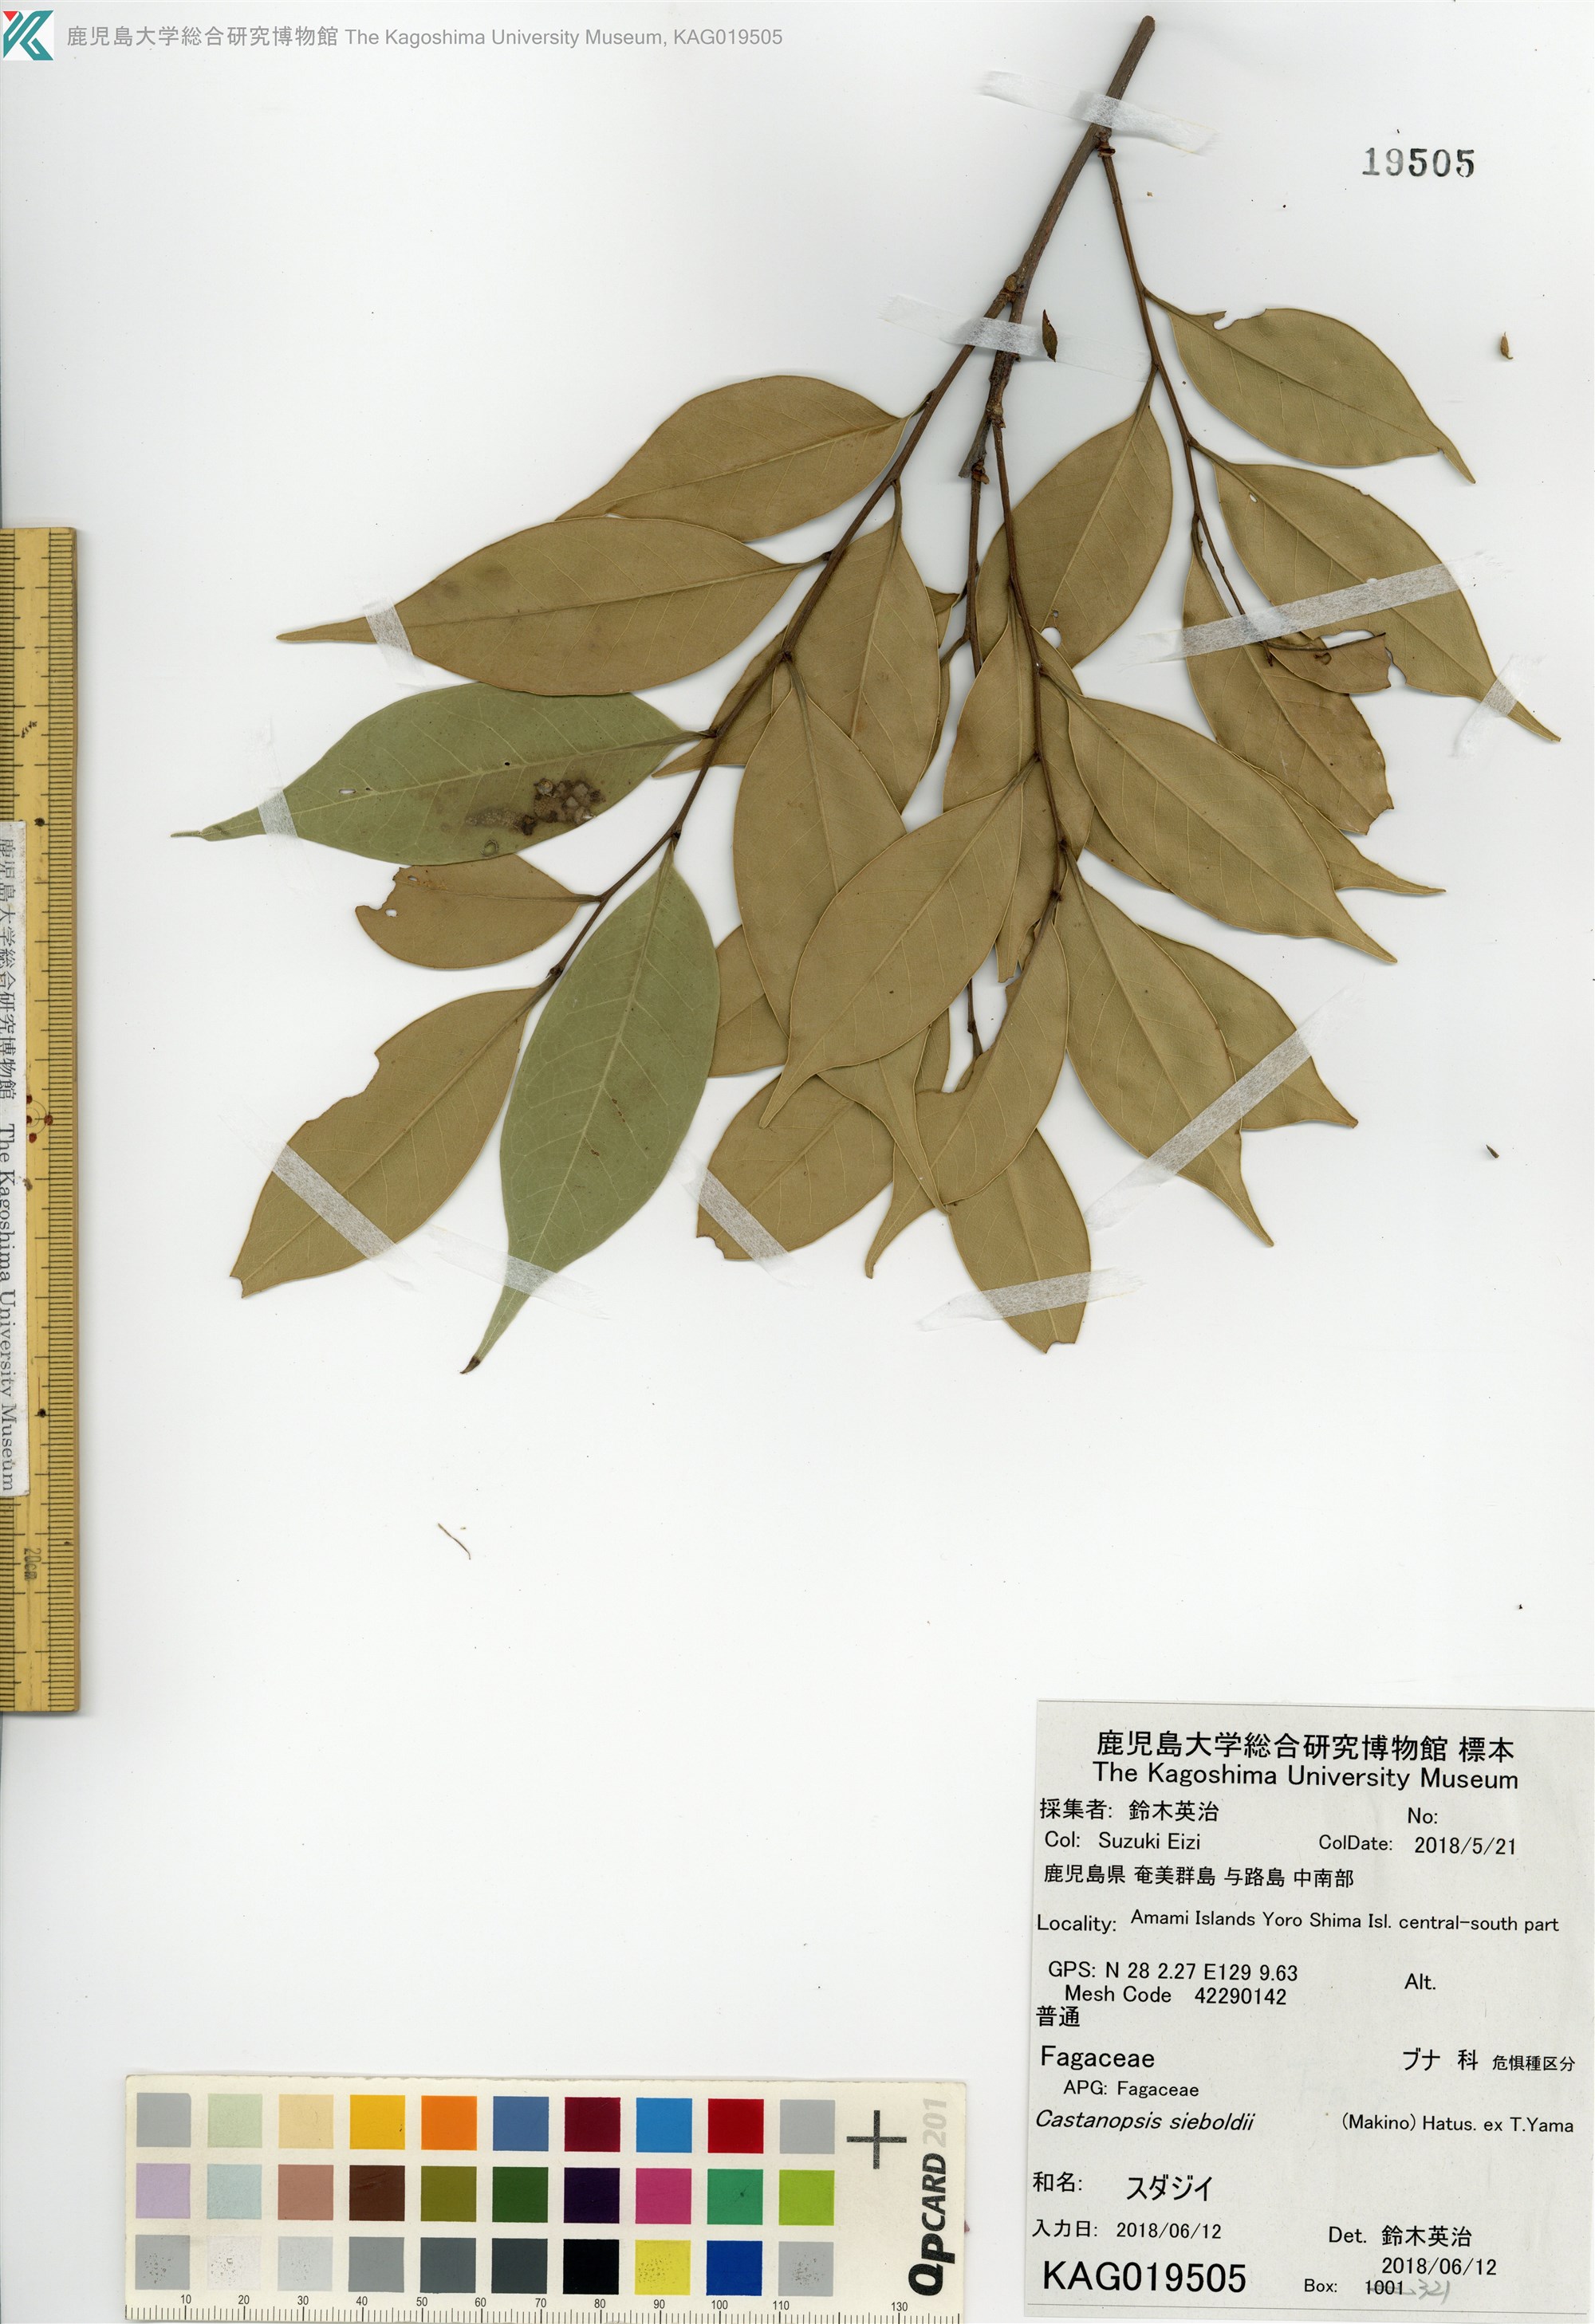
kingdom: Plantae
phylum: Tracheophyta
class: Magnoliopsida
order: Fagales
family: Fagaceae
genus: Castanopsis
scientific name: Castanopsis sieboldii
